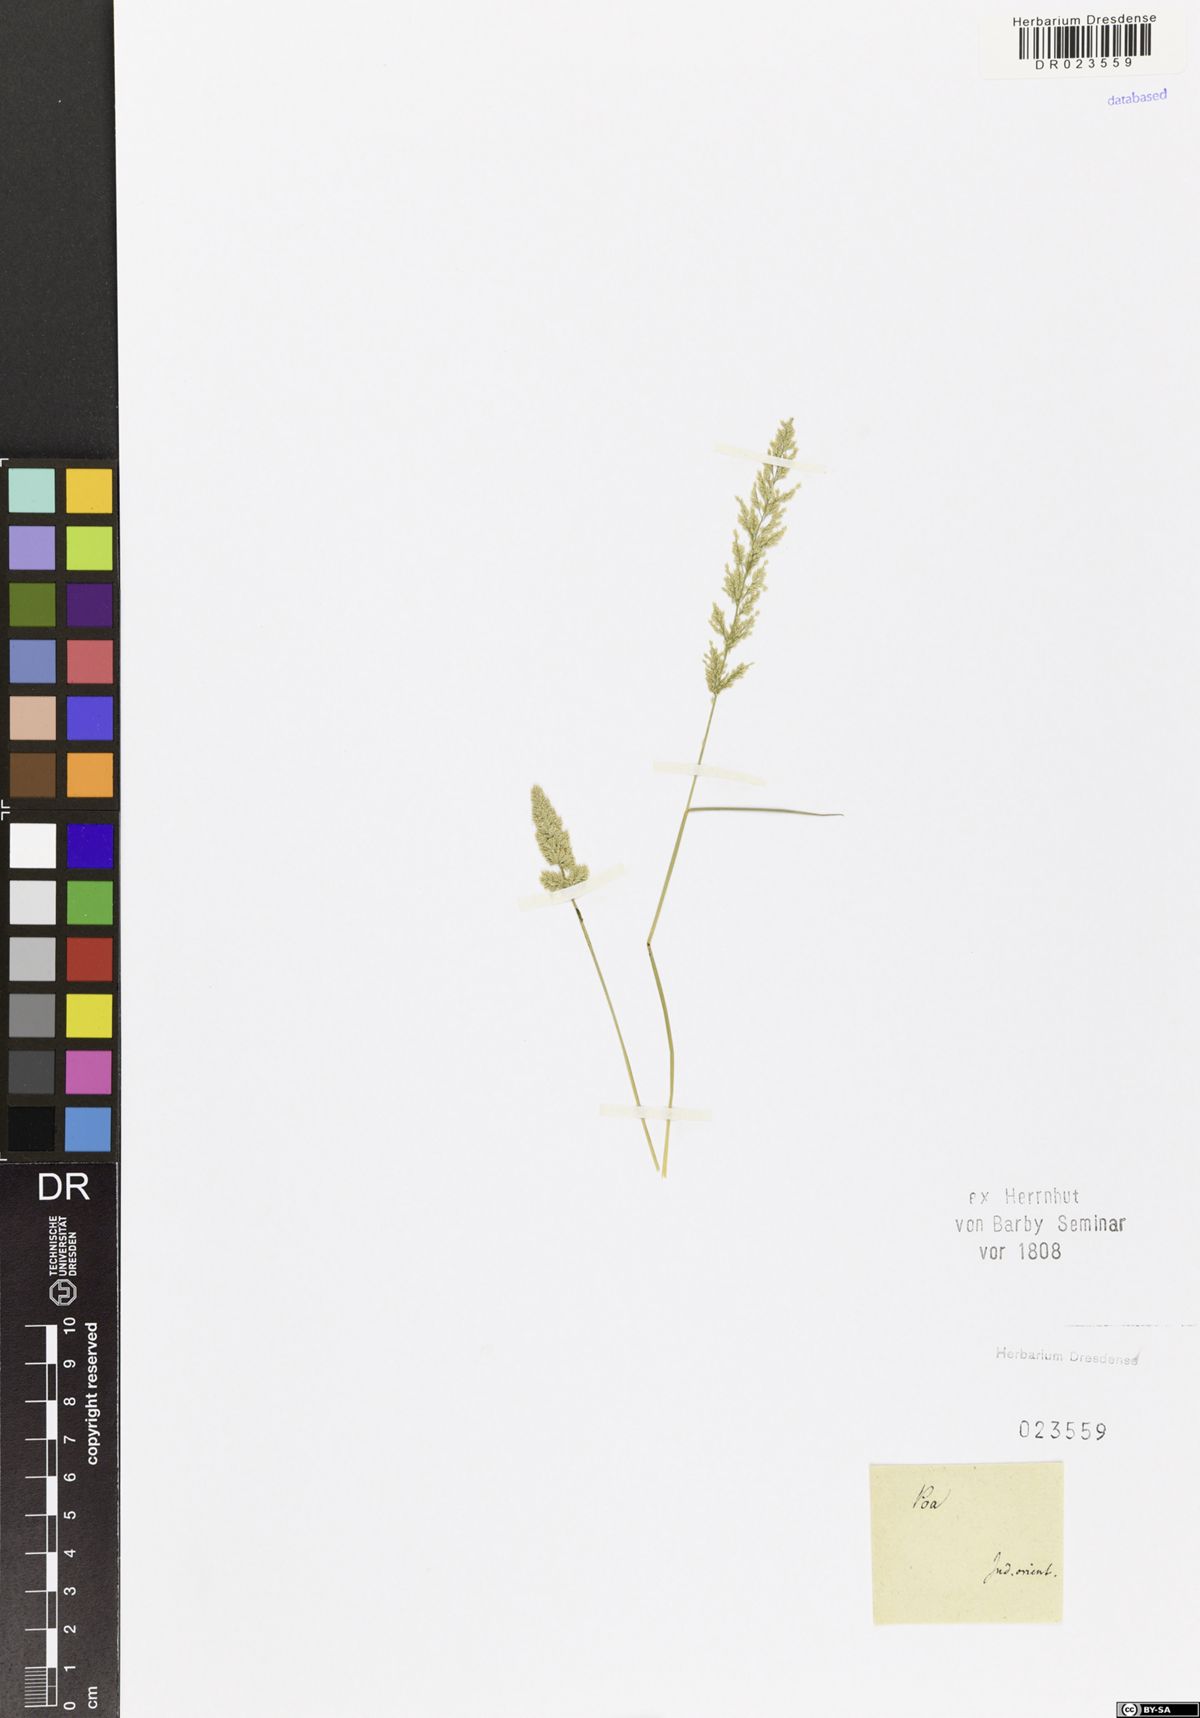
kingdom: Plantae
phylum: Tracheophyta
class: Liliopsida
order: Poales
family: Poaceae
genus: Eragrostis
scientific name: Eragrostis
